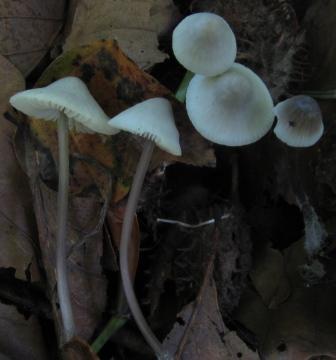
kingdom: Fungi
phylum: Basidiomycota
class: Agaricomycetes
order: Agaricales
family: Mycenaceae
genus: Mycena
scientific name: Mycena arcangeliana
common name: oliven-huesvamp
